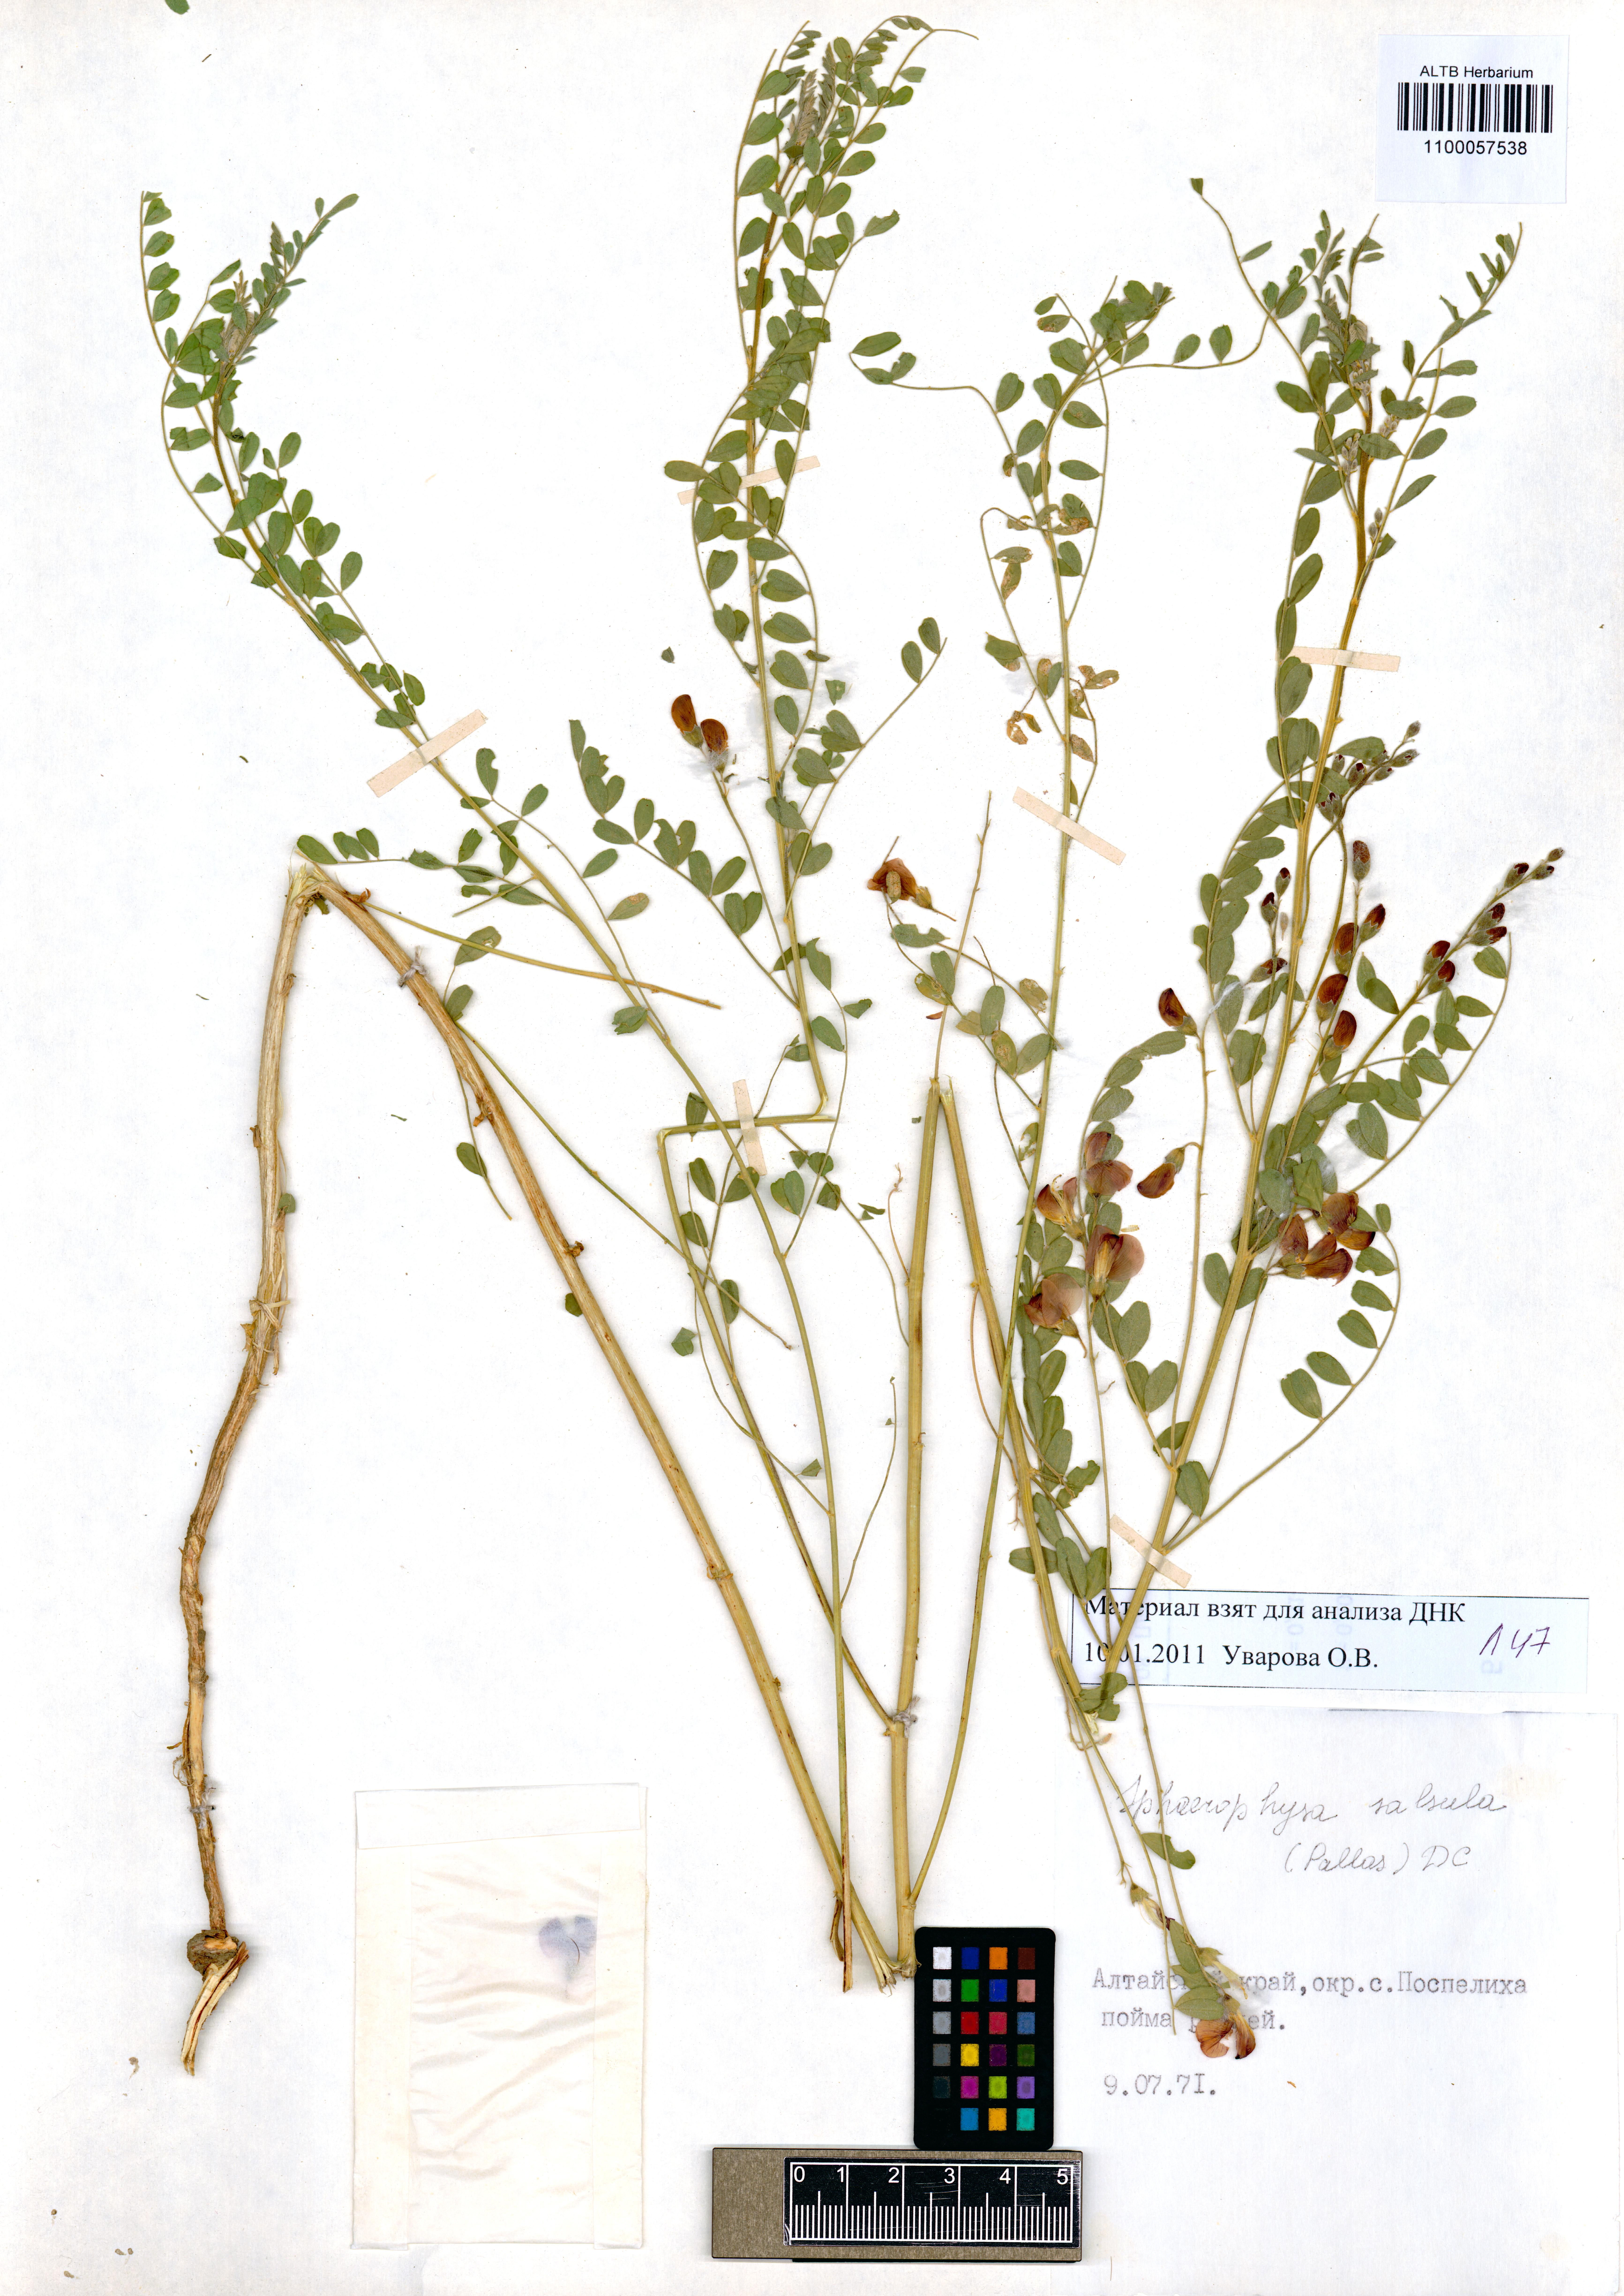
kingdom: Plantae
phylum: Tracheophyta
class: Magnoliopsida
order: Fabales
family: Fabaceae
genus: Sphaerophysa
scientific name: Sphaerophysa salsula
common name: Alkali swainsonpea
